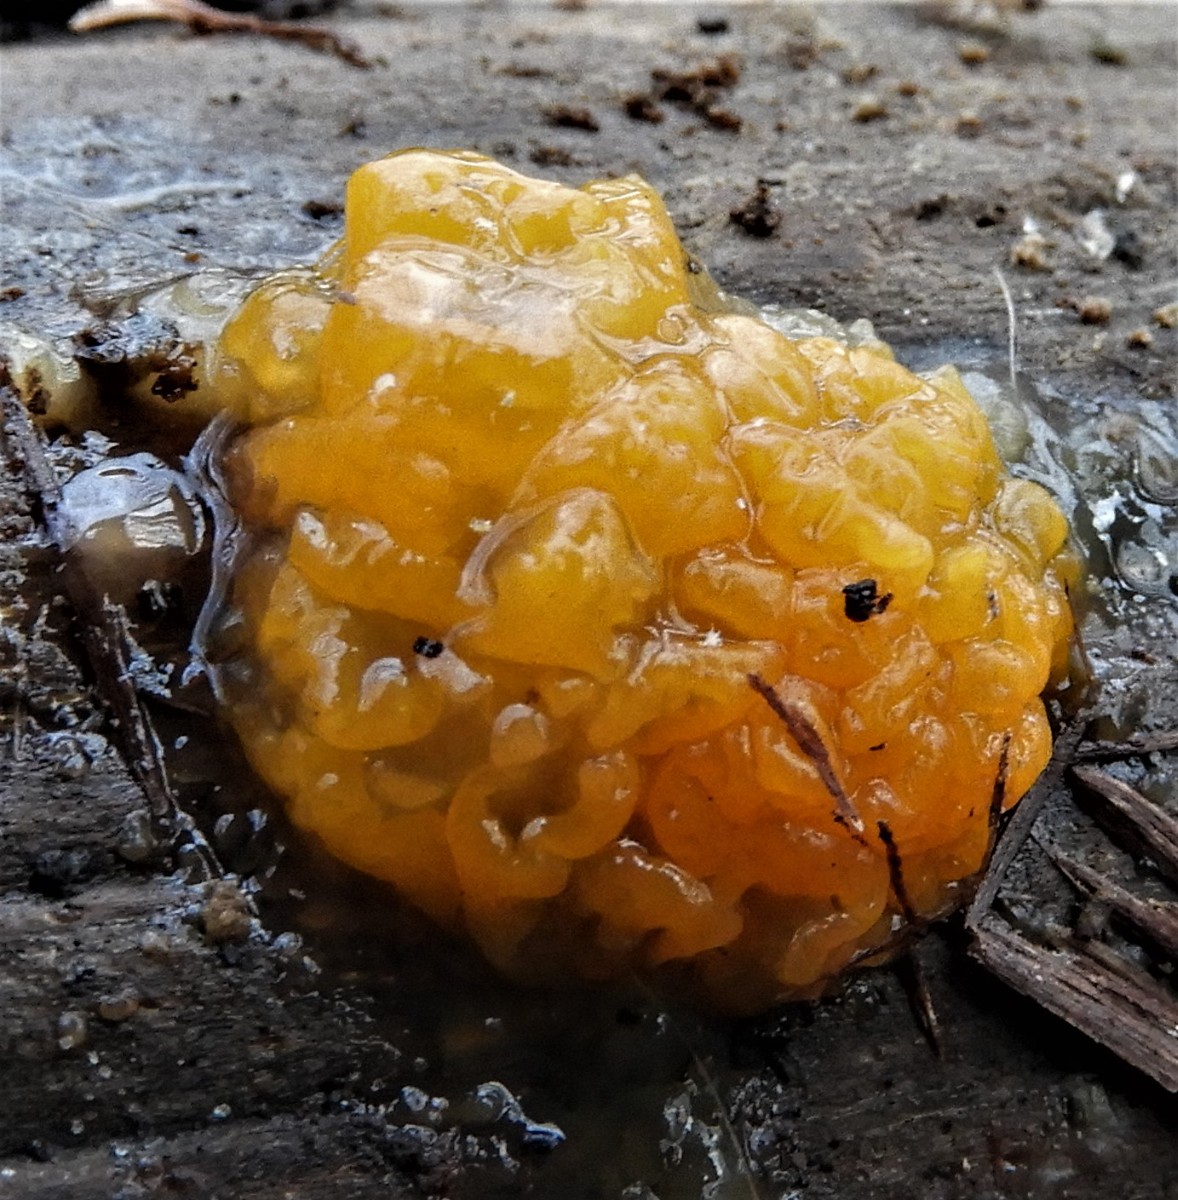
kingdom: Fungi
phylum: Basidiomycota
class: Dacrymycetes
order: Dacrymycetales
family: Dacrymycetaceae
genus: Dacrymyces
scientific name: Dacrymyces lacrymalis
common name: rynket tåresvamp
